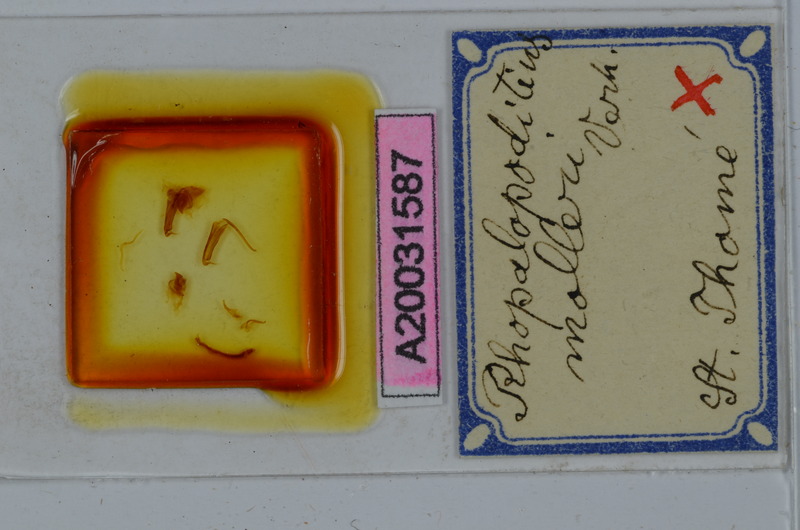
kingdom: Animalia
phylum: Arthropoda
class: Diplopoda
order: Spirostreptida
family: Spirostreptidae
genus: Globanus
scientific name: Globanus integer
